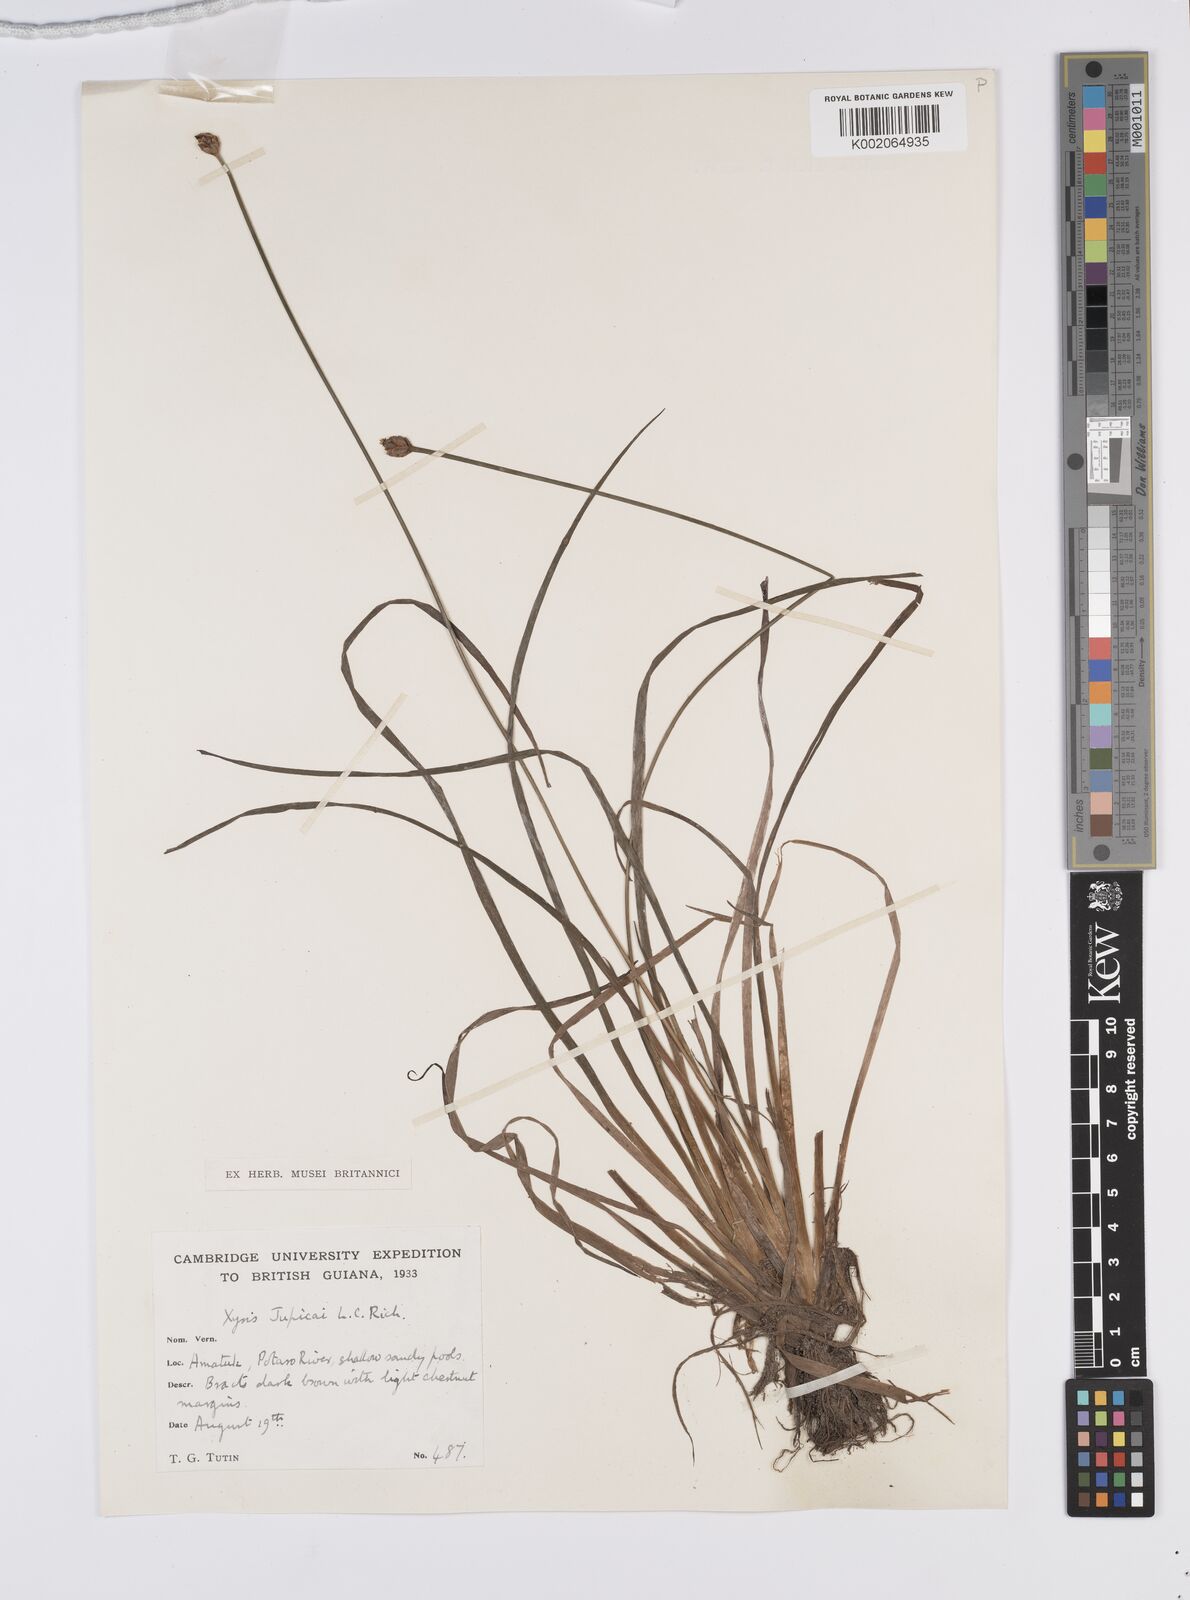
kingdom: Plantae
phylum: Tracheophyta
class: Liliopsida
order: Poales
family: Xyridaceae
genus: Xyris
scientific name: Xyris jupicai
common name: Richard's yelloweyed grass
